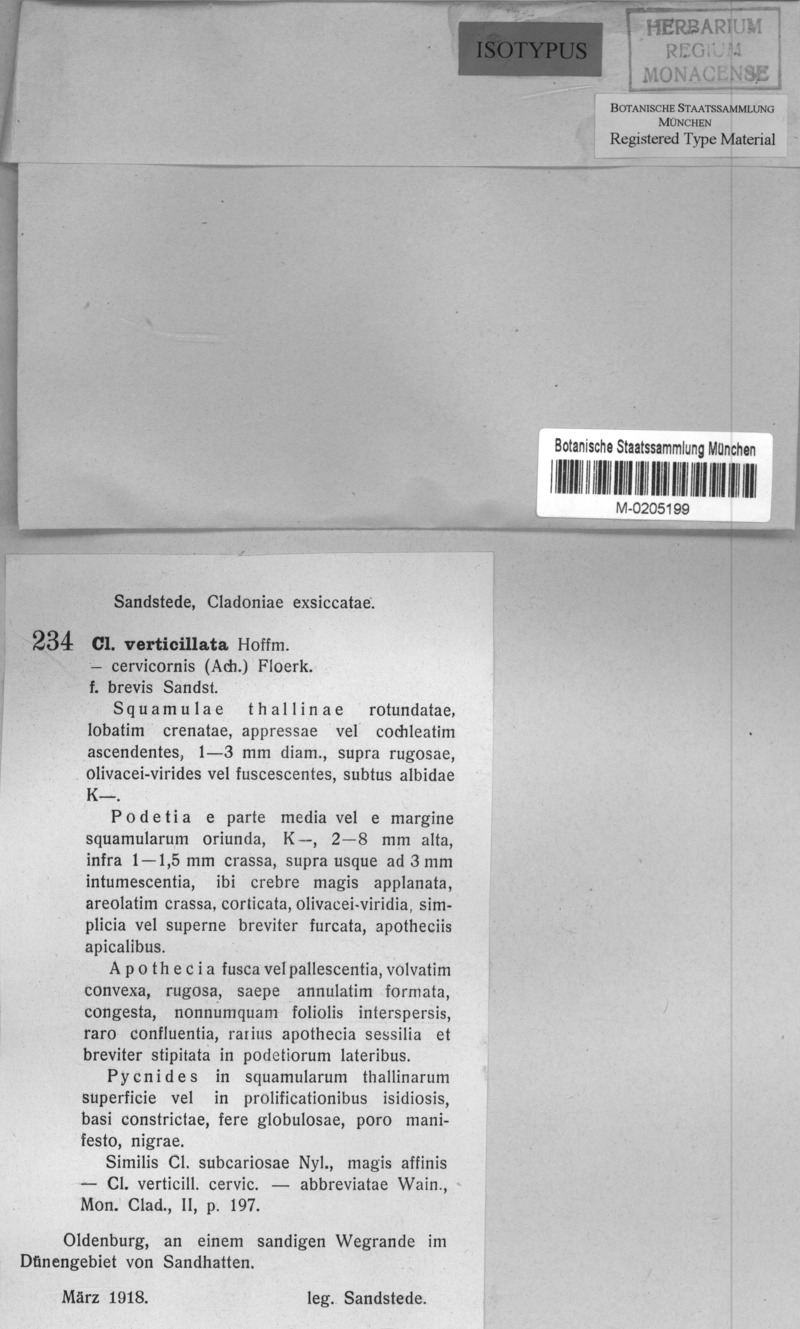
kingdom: Fungi
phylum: Ascomycota
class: Lecanoromycetes
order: Lecanorales
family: Cladoniaceae
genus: Cladonia
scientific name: Cladonia brevis
